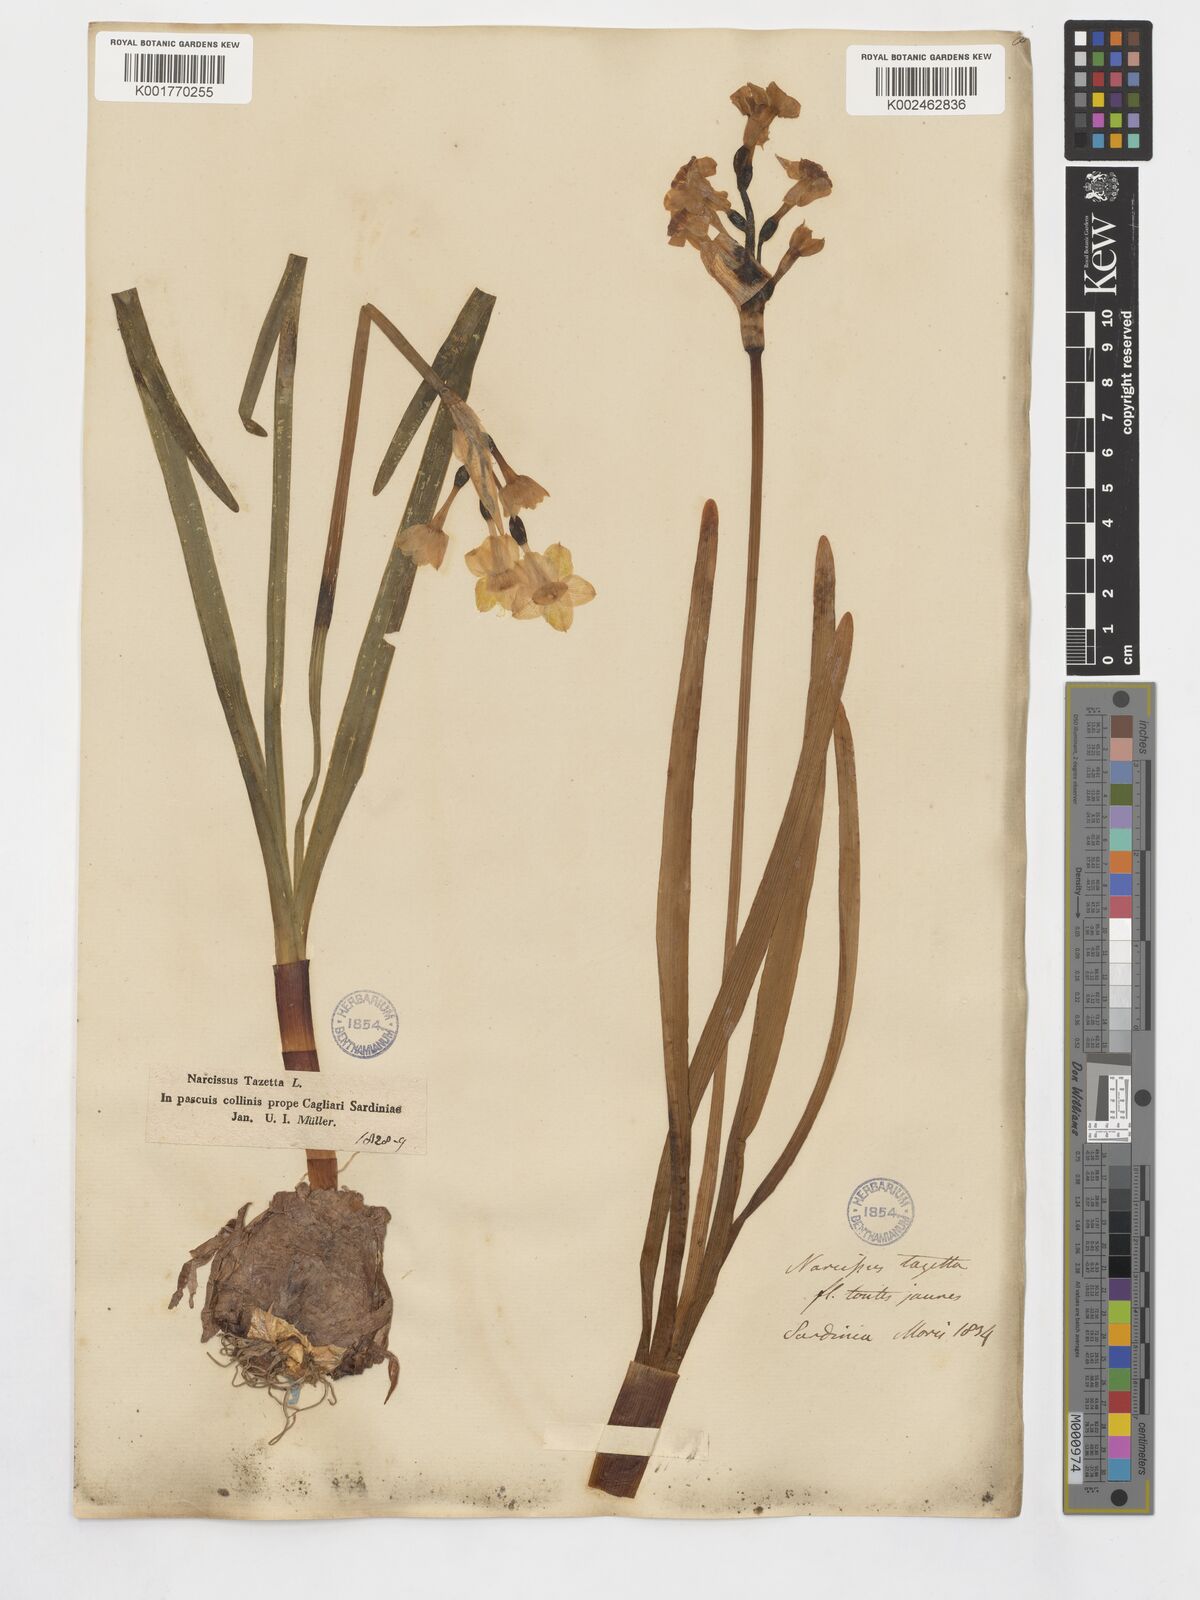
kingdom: Plantae
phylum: Tracheophyta
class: Liliopsida
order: Asparagales
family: Amaryllidaceae
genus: Narcissus
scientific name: Narcissus tazetta
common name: Bunch-flowered daffodil
